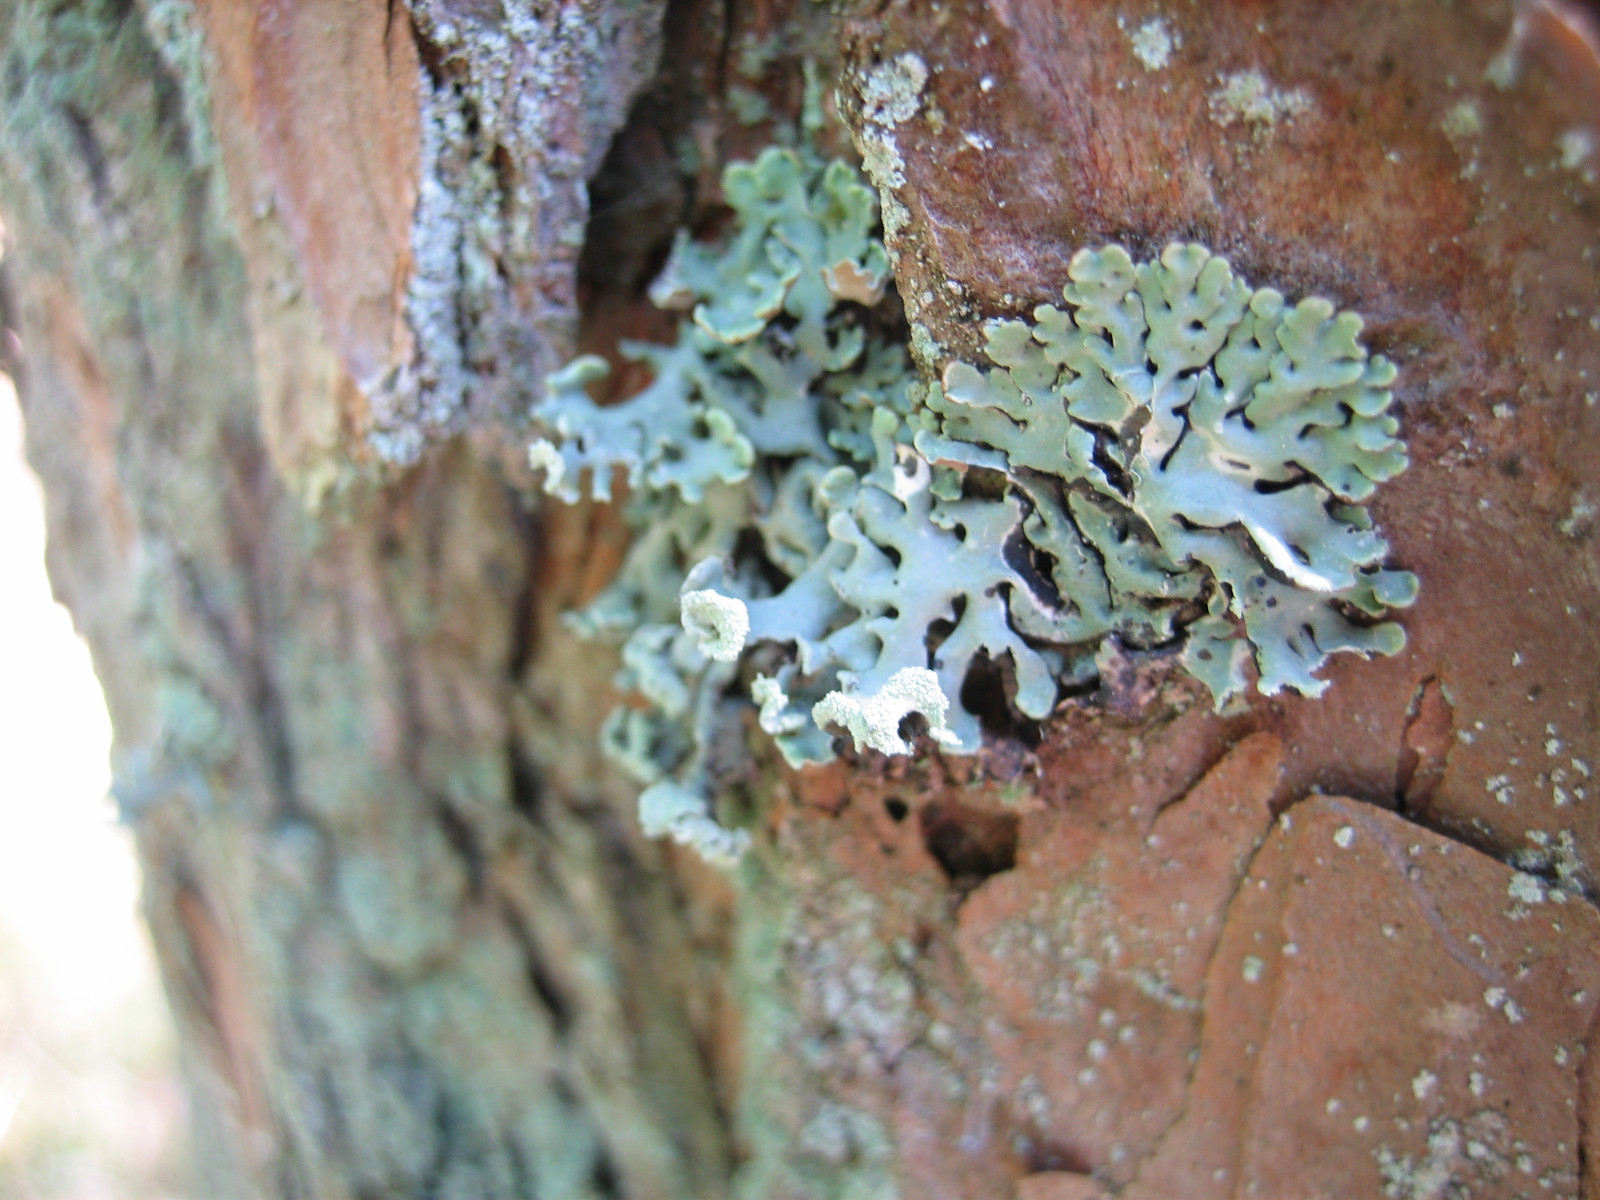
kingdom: Fungi
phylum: Ascomycota
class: Lecanoromycetes
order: Lecanorales
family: Parmeliaceae
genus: Hypogymnia
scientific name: Hypogymnia physodes
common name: almindelig kvistlav
